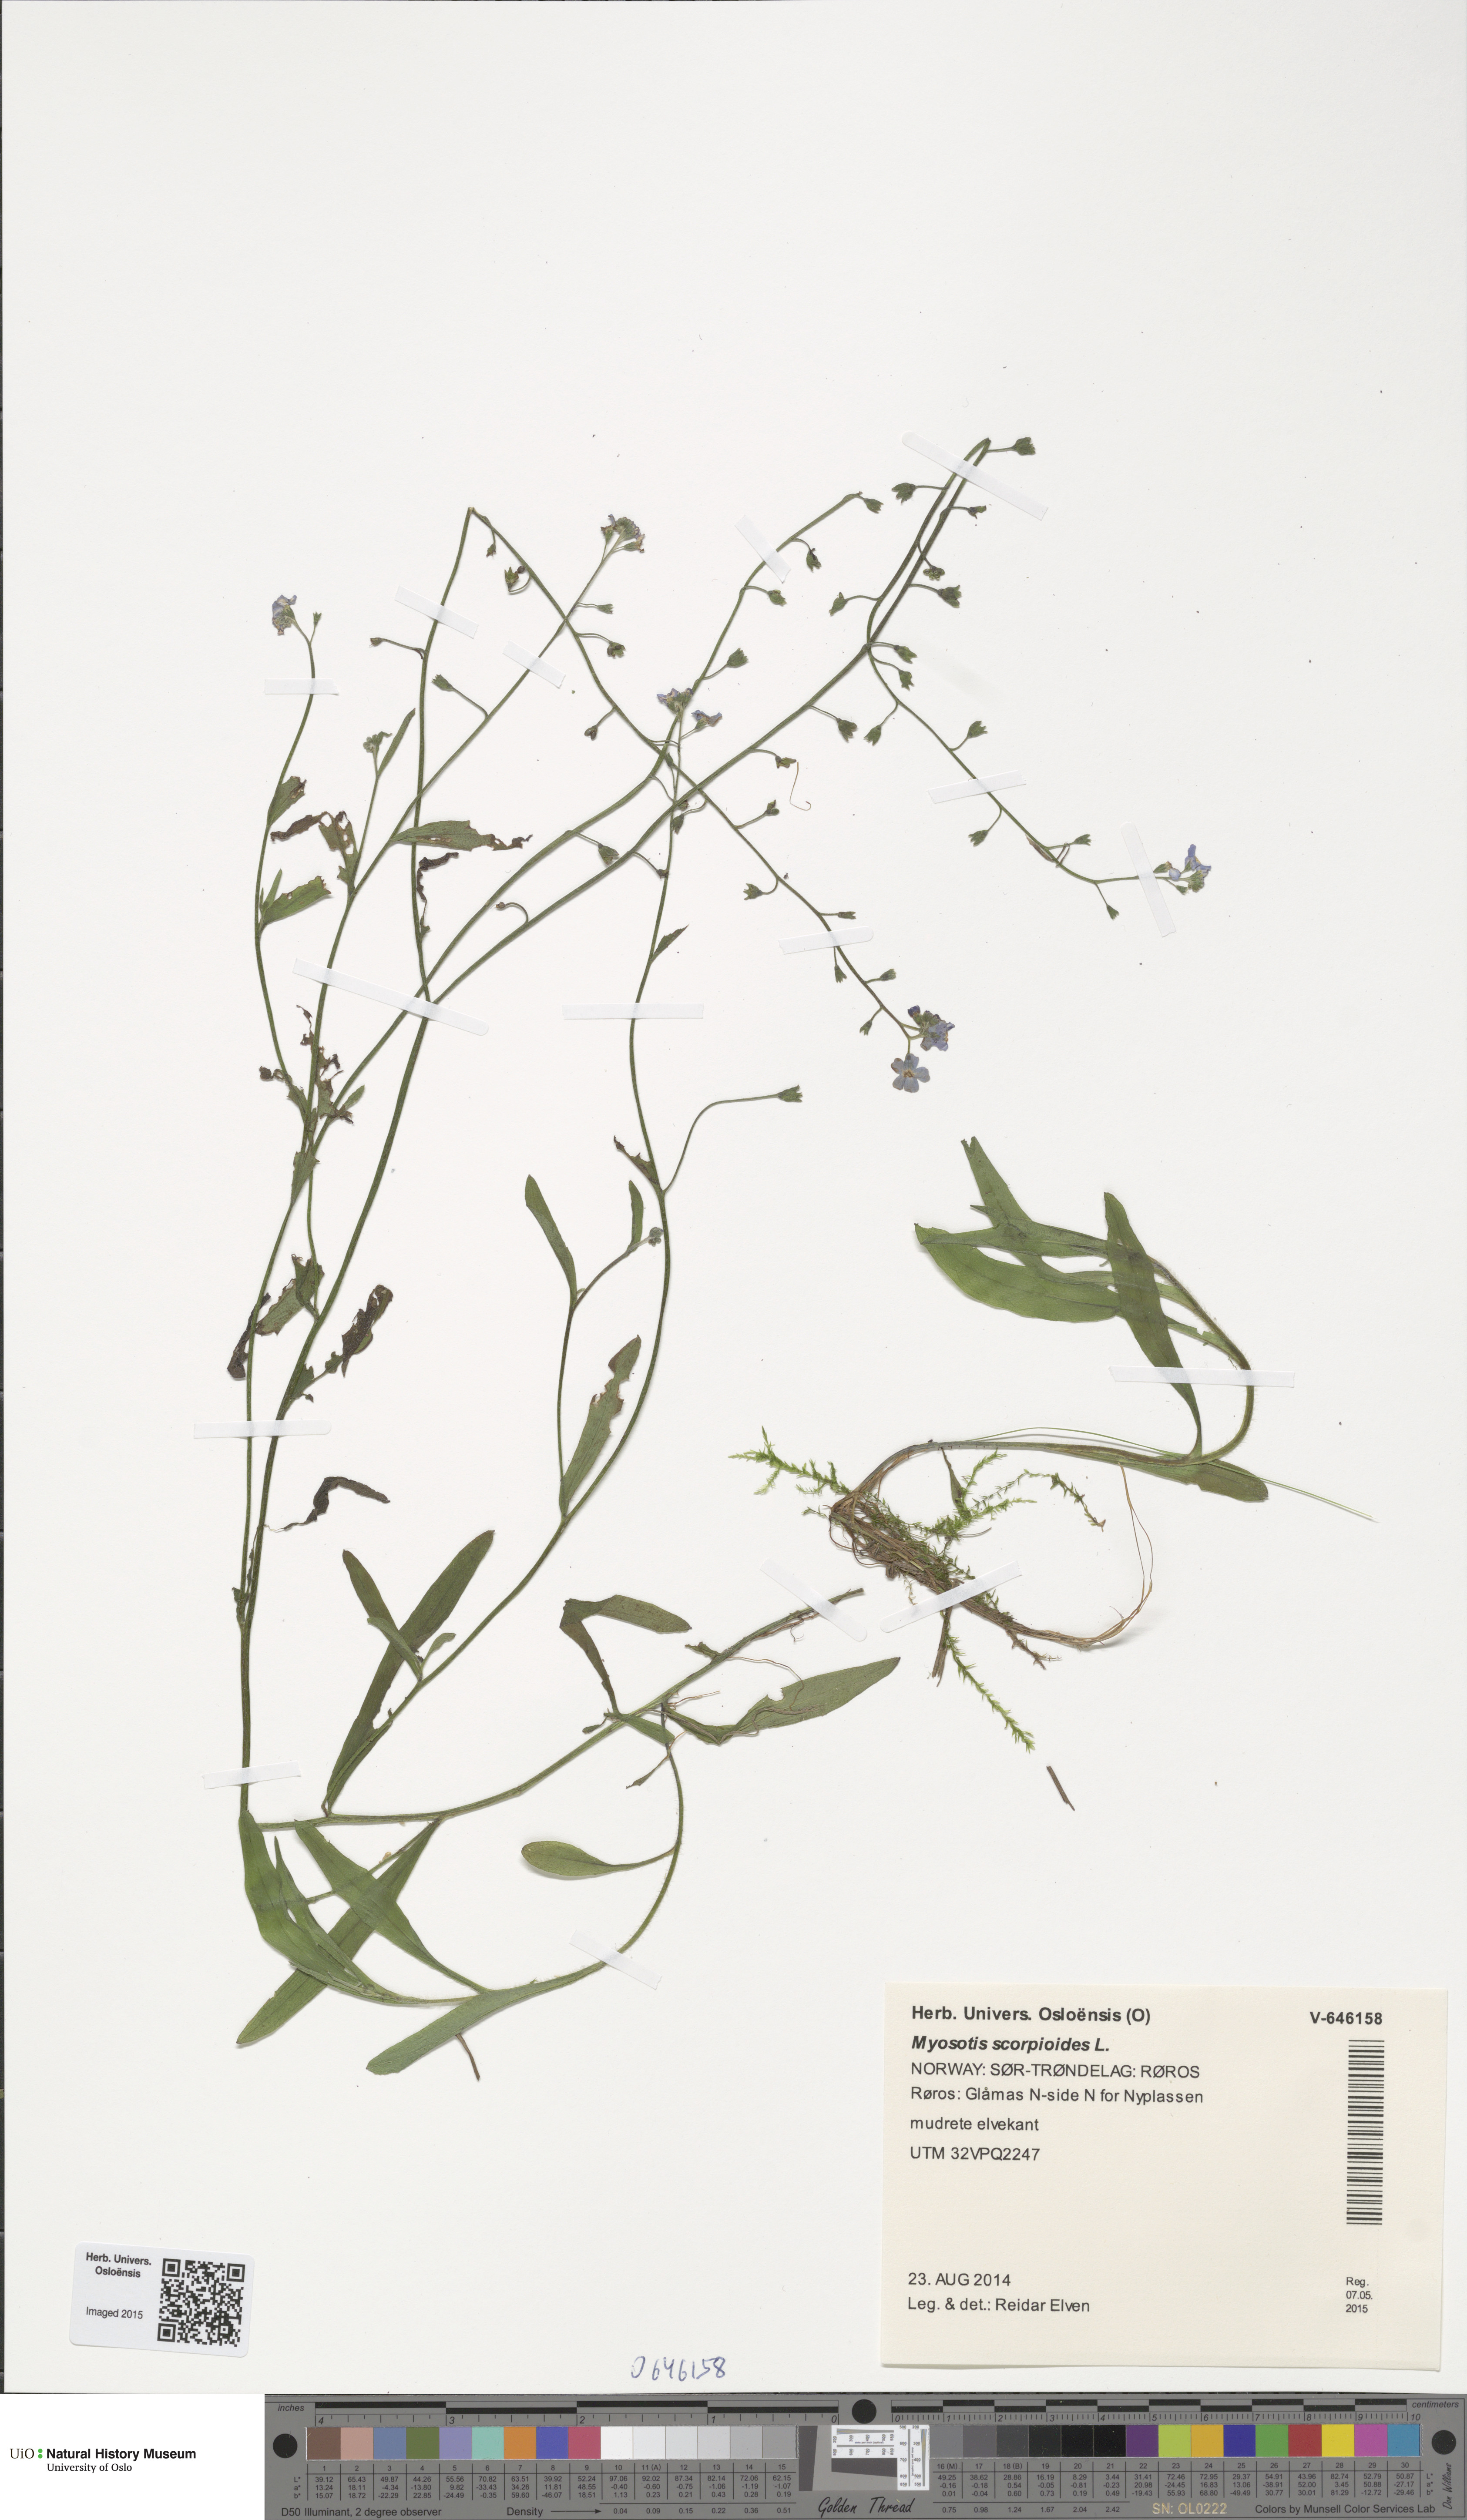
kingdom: Plantae
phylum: Tracheophyta
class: Magnoliopsida
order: Boraginales
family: Boraginaceae
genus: Myosotis
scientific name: Myosotis scorpioides
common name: Water forget-me-not
